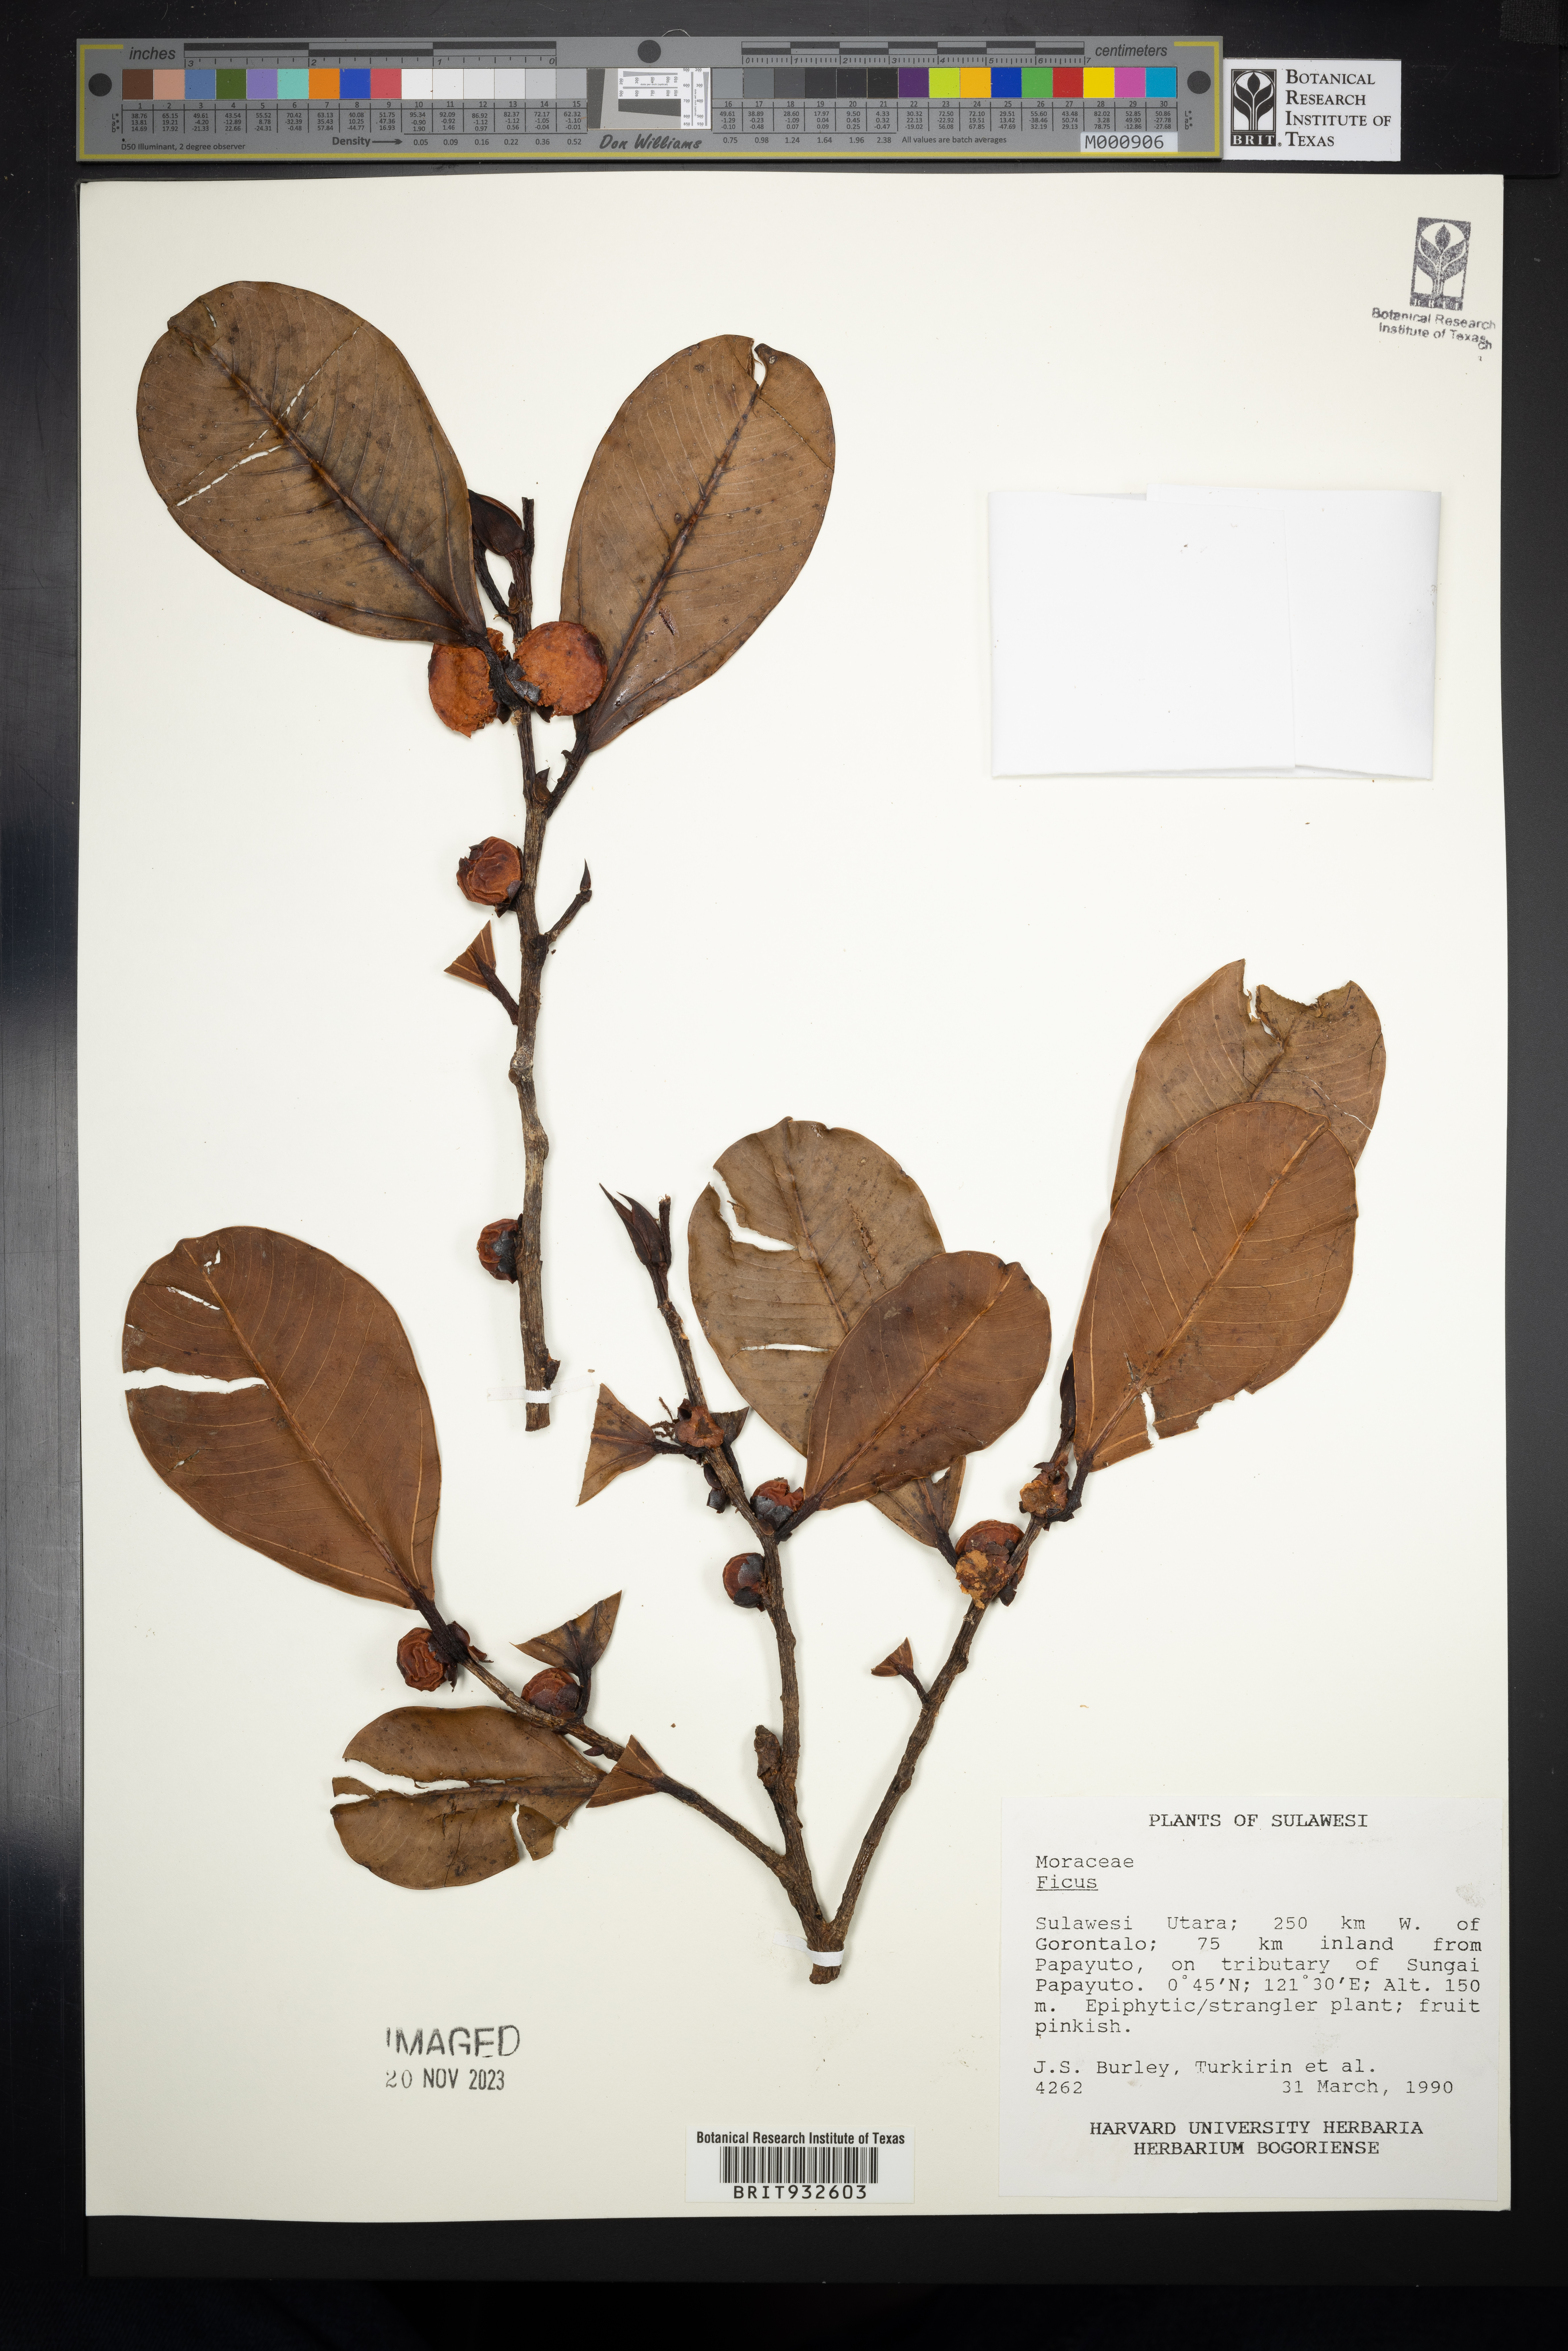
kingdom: Plantae
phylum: Tracheophyta
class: Magnoliopsida
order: Rosales
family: Moraceae
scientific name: Moraceae
